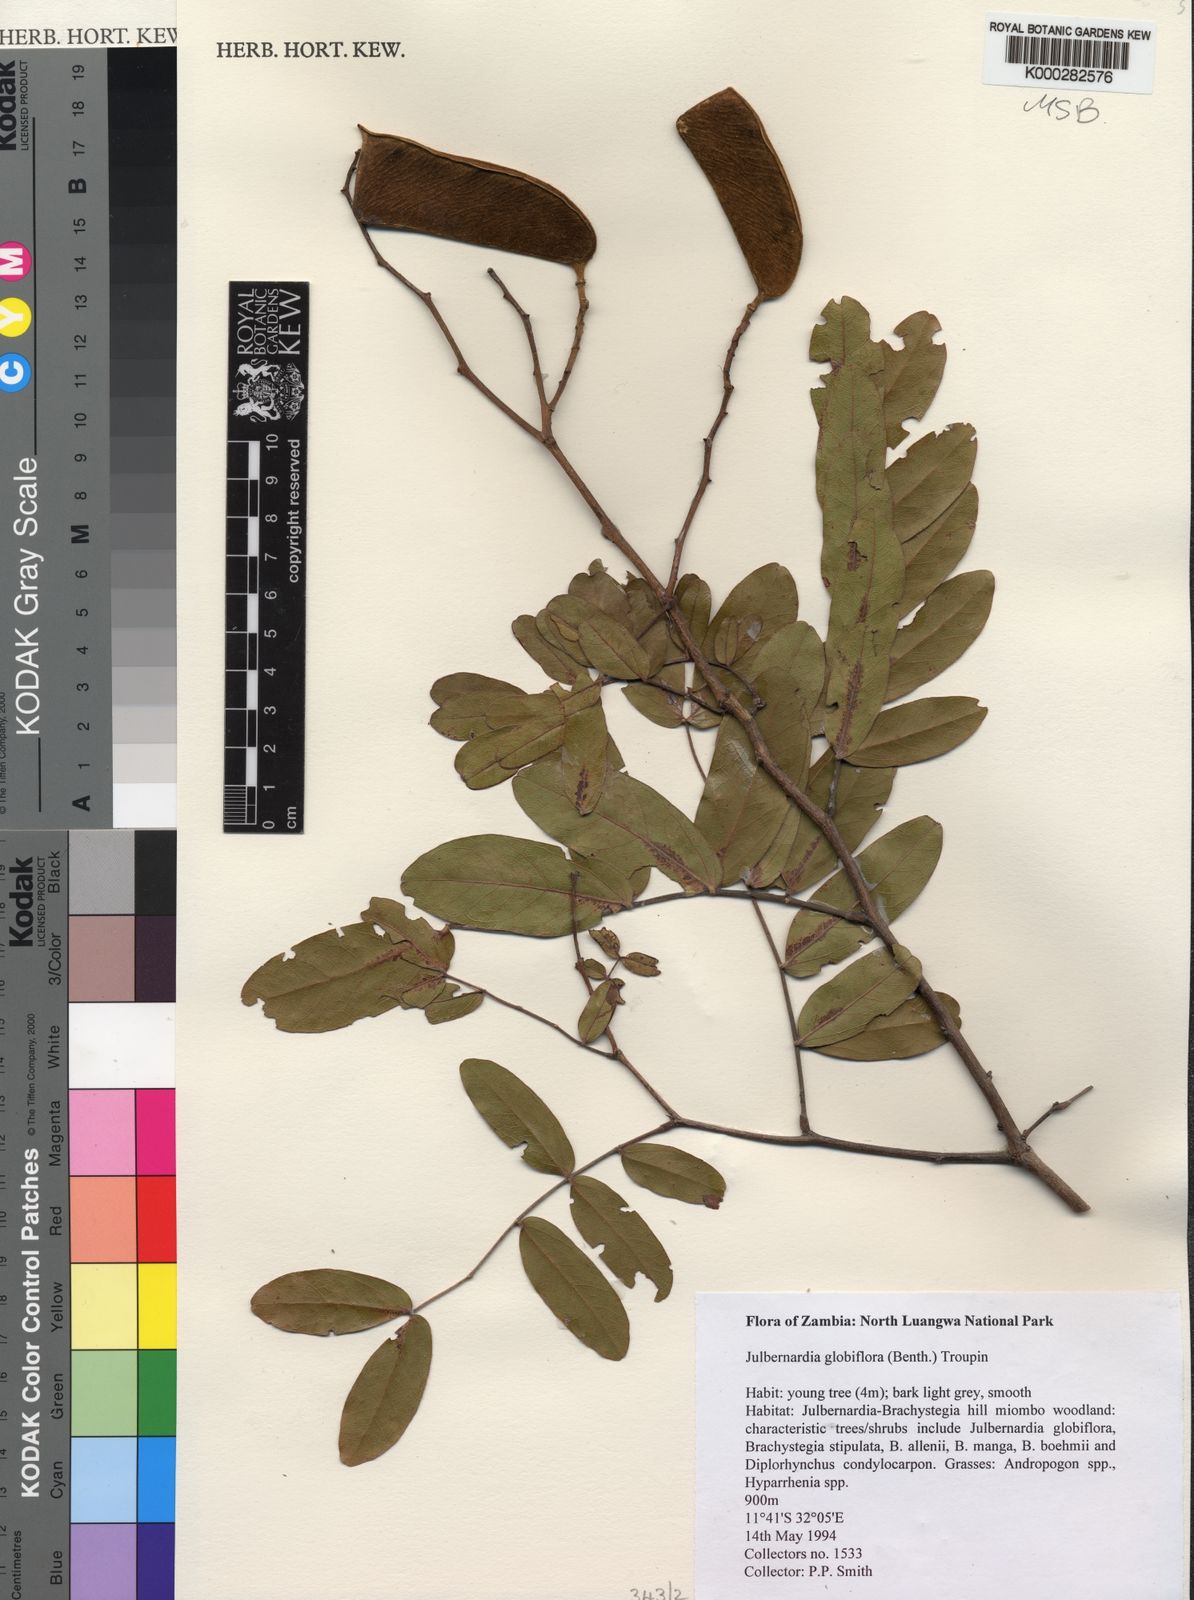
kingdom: Plantae
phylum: Tracheophyta
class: Magnoliopsida
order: Fabales
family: Fabaceae
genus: Julbernardia
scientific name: Julbernardia globiflora
